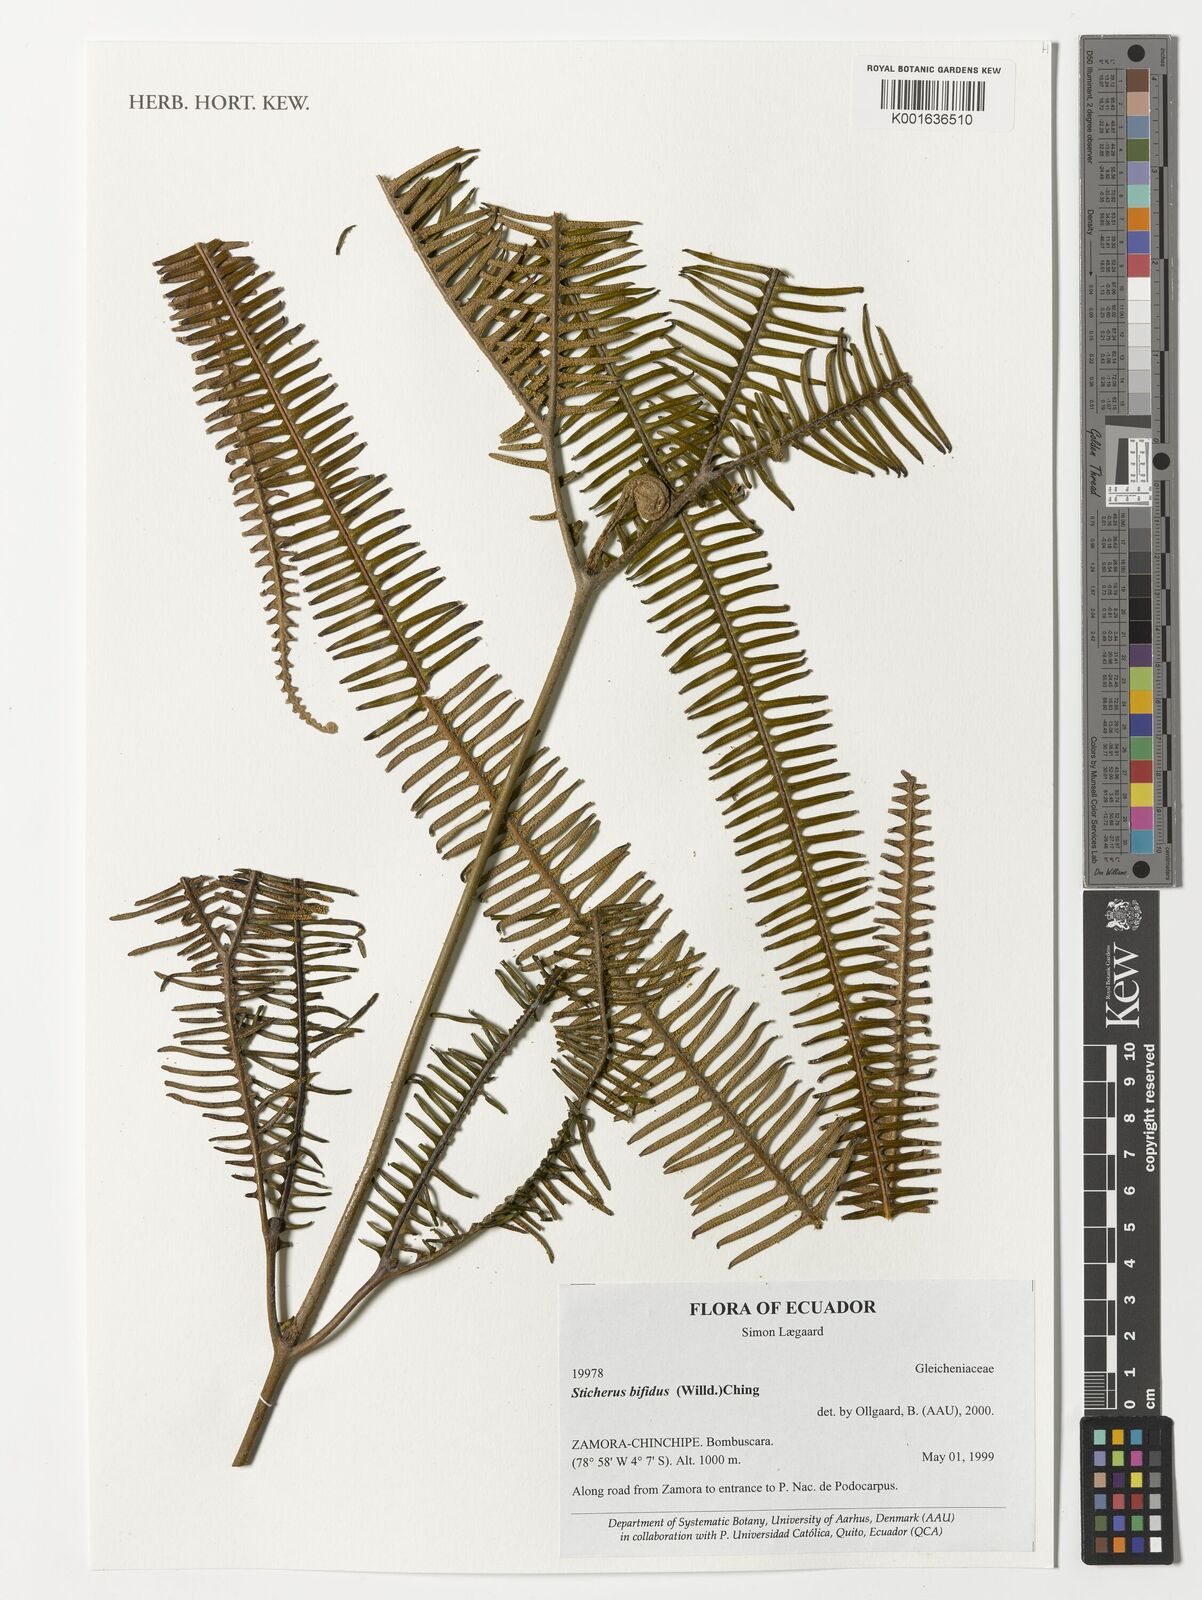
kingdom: Plantae
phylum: Tracheophyta
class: Polypodiopsida
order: Gleicheniales
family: Gleicheniaceae
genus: Sticherus
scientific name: Sticherus bifidus
